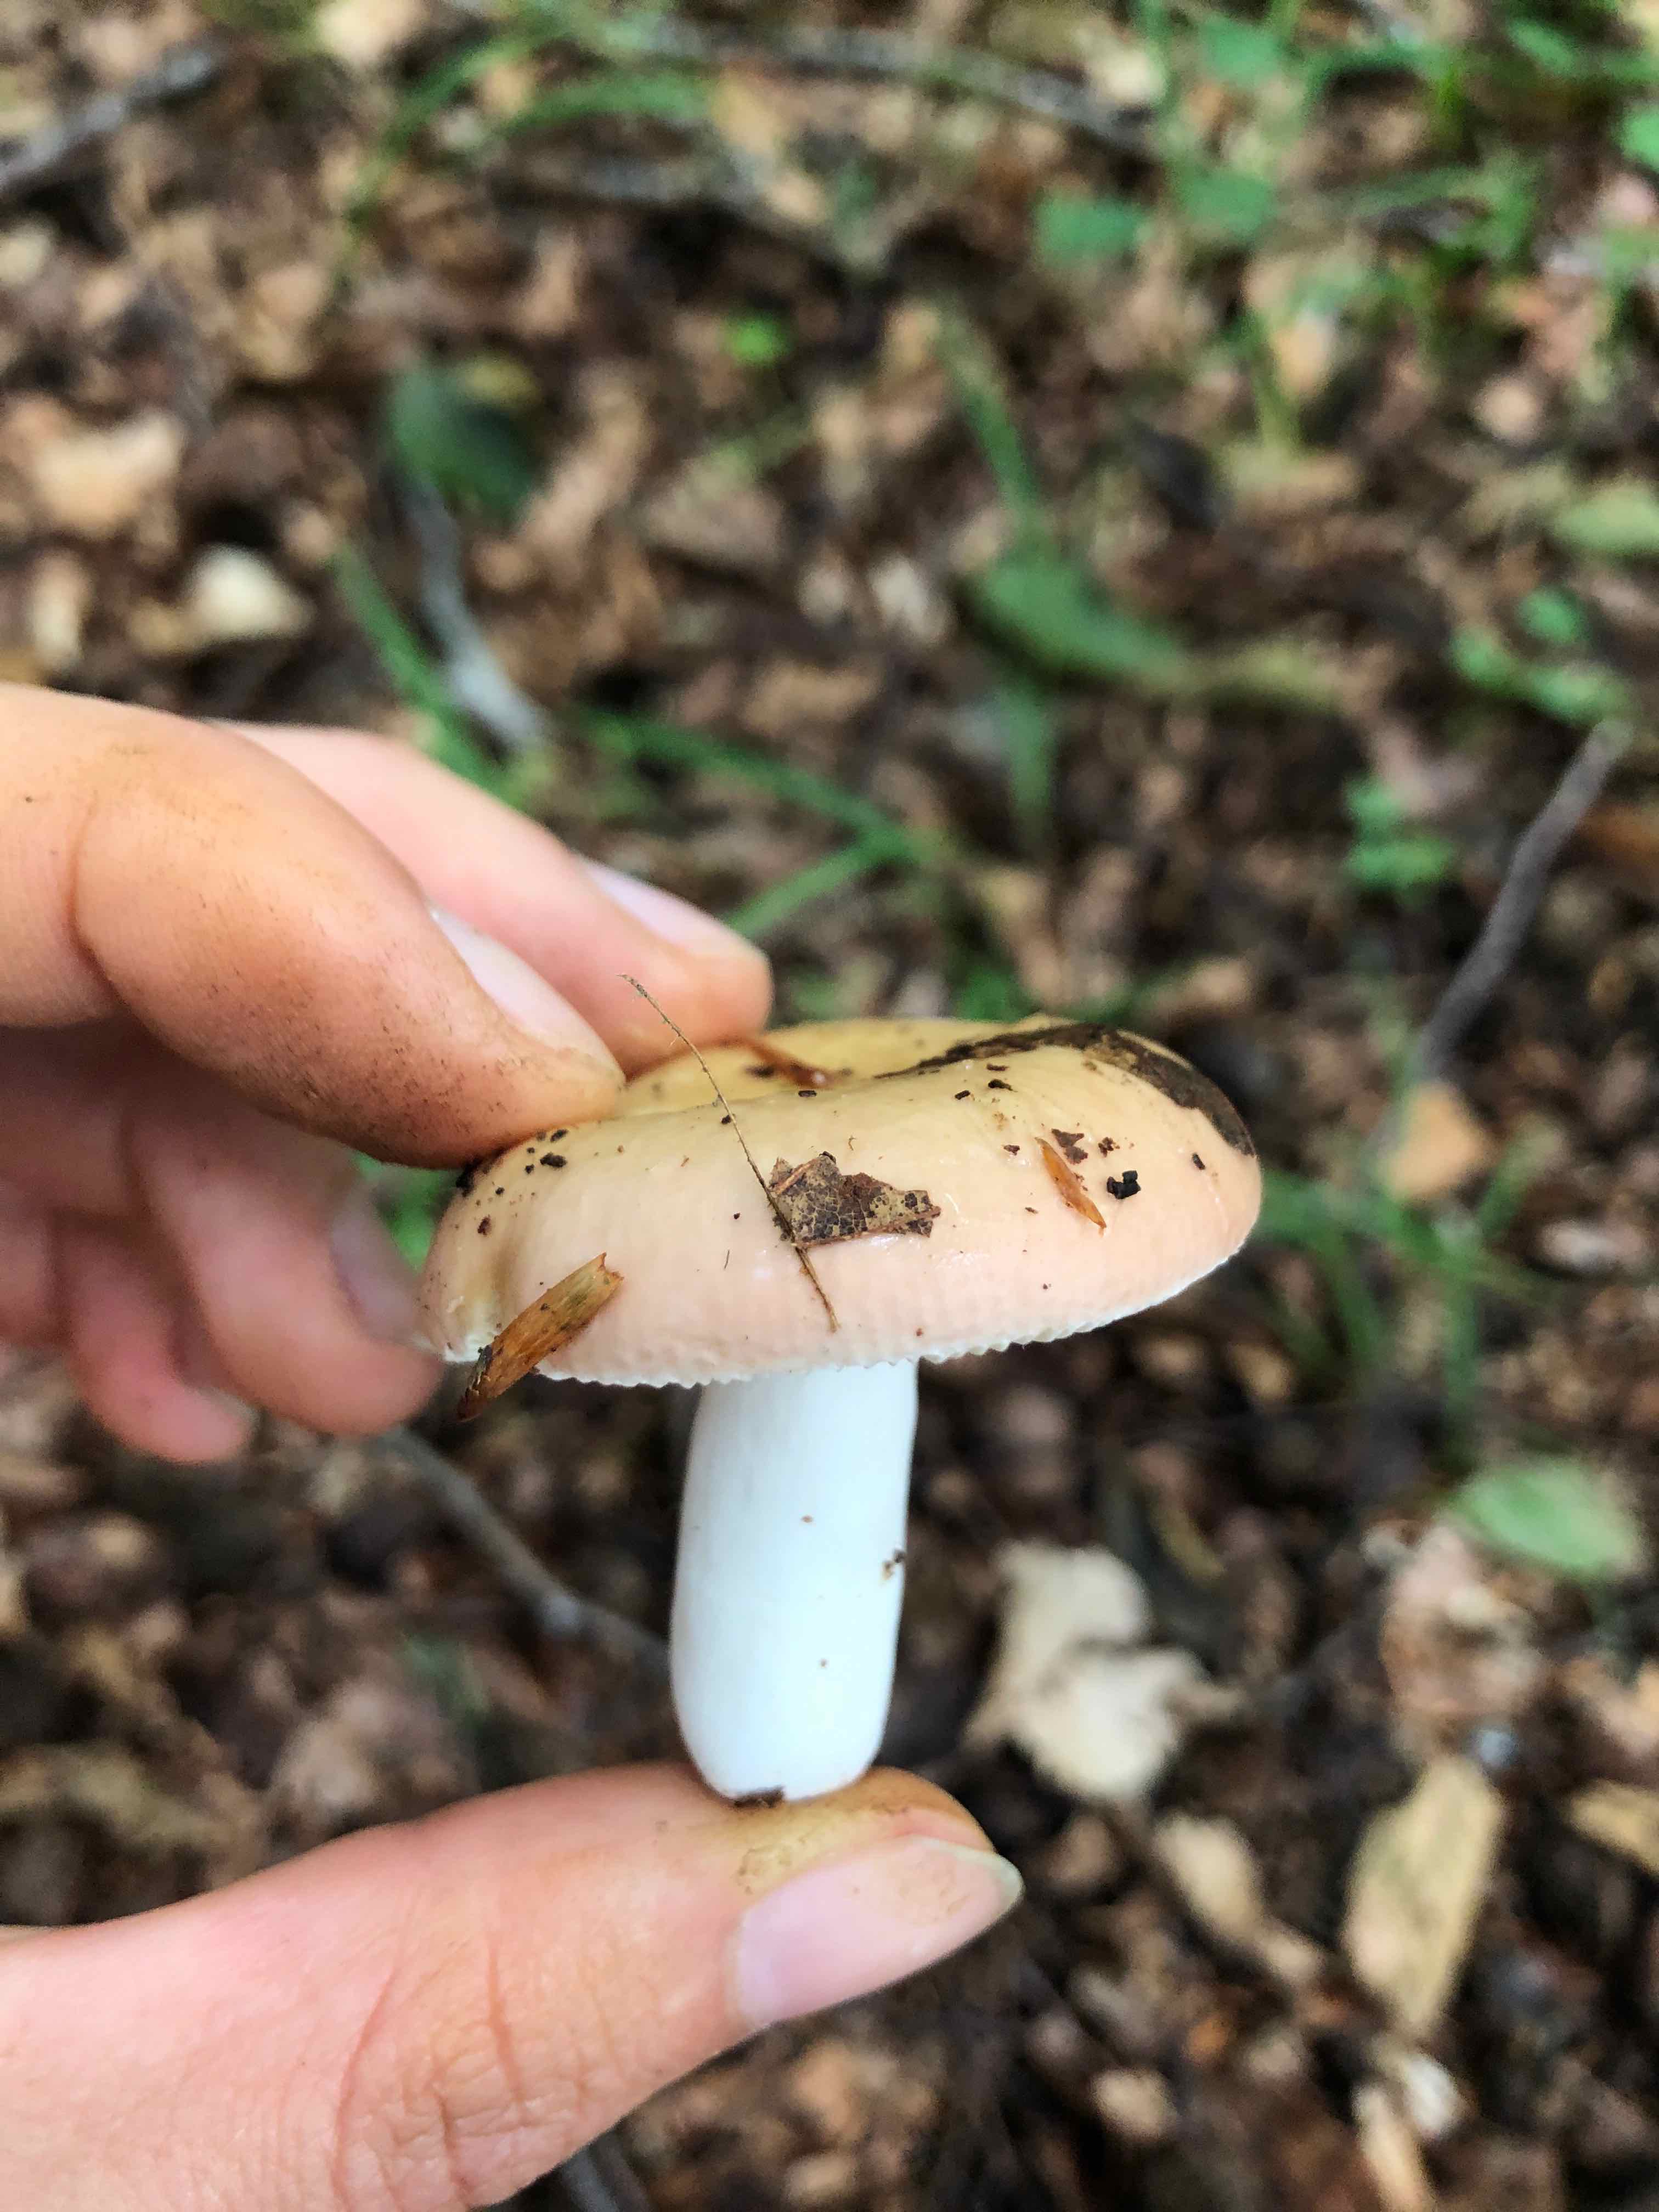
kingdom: Fungi
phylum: Basidiomycota
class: Agaricomycetes
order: Russulales
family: Russulaceae
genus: Russula
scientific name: Russula
